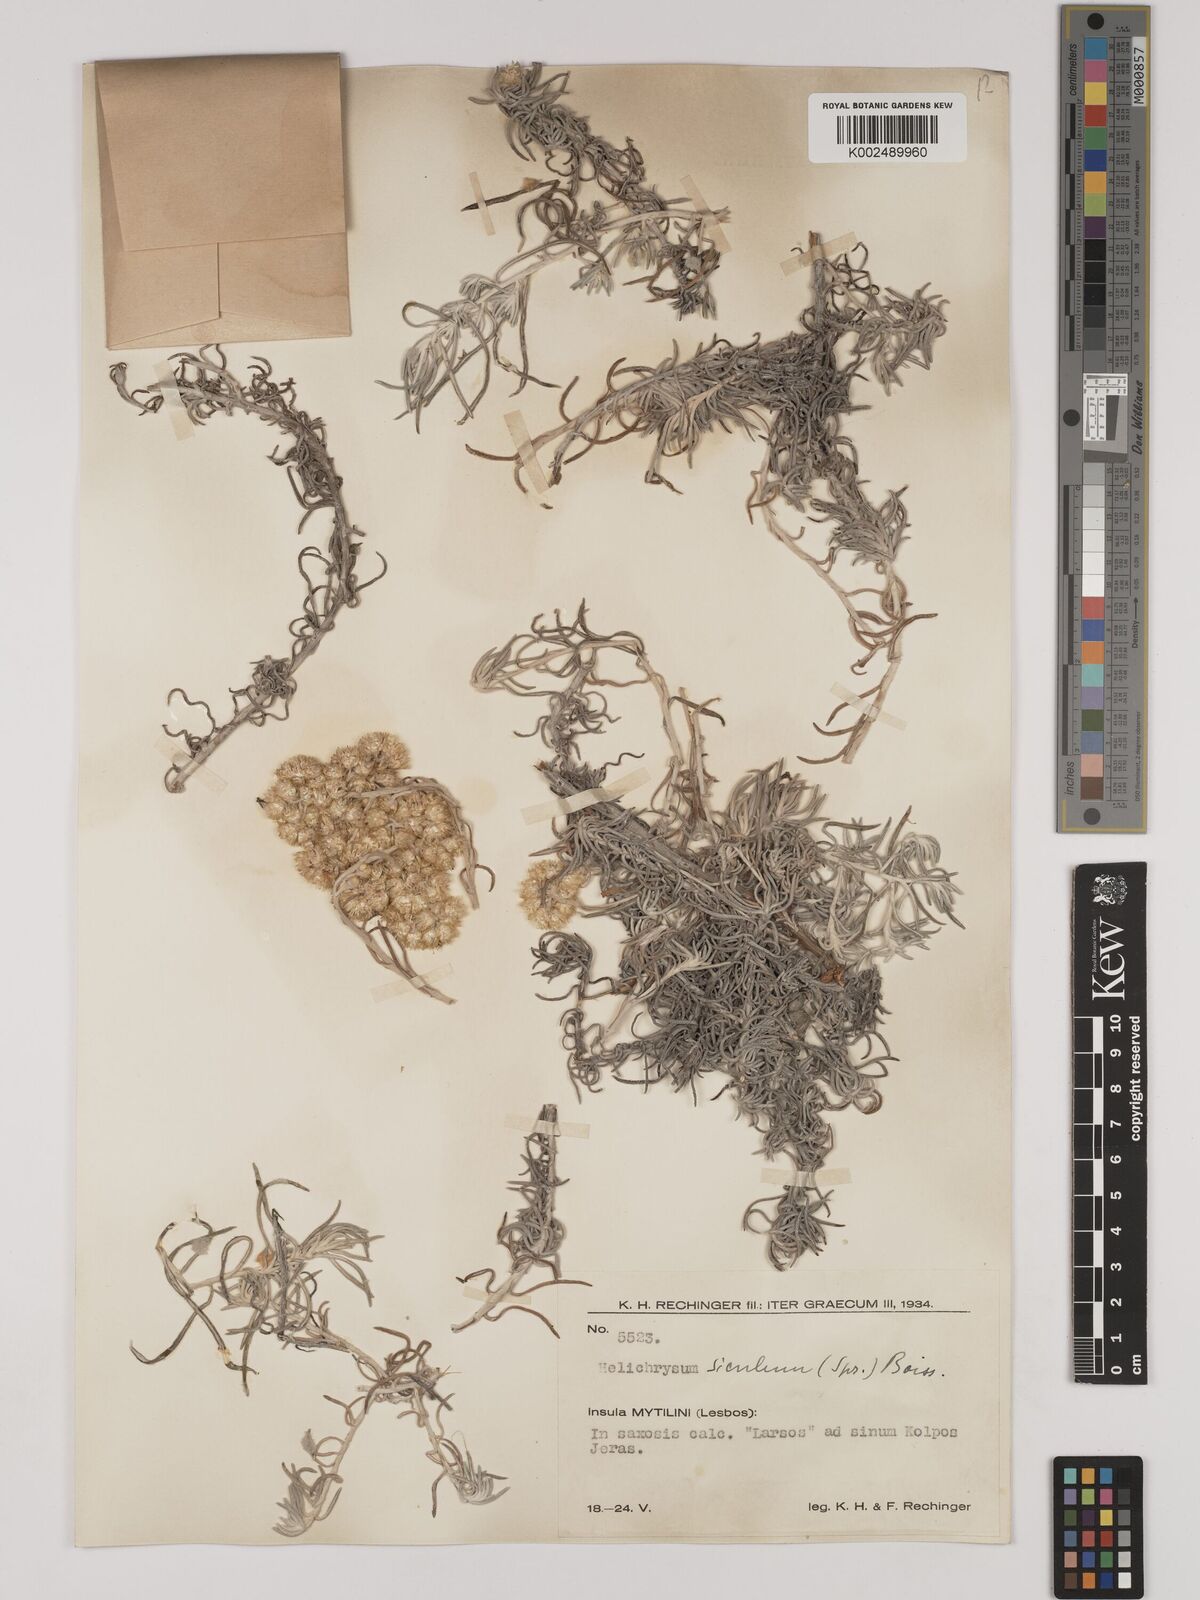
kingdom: Plantae
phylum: Tracheophyta
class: Magnoliopsida
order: Asterales
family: Asteraceae
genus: Helichrysum
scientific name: Helichrysum stoechas
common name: Goldilocks
